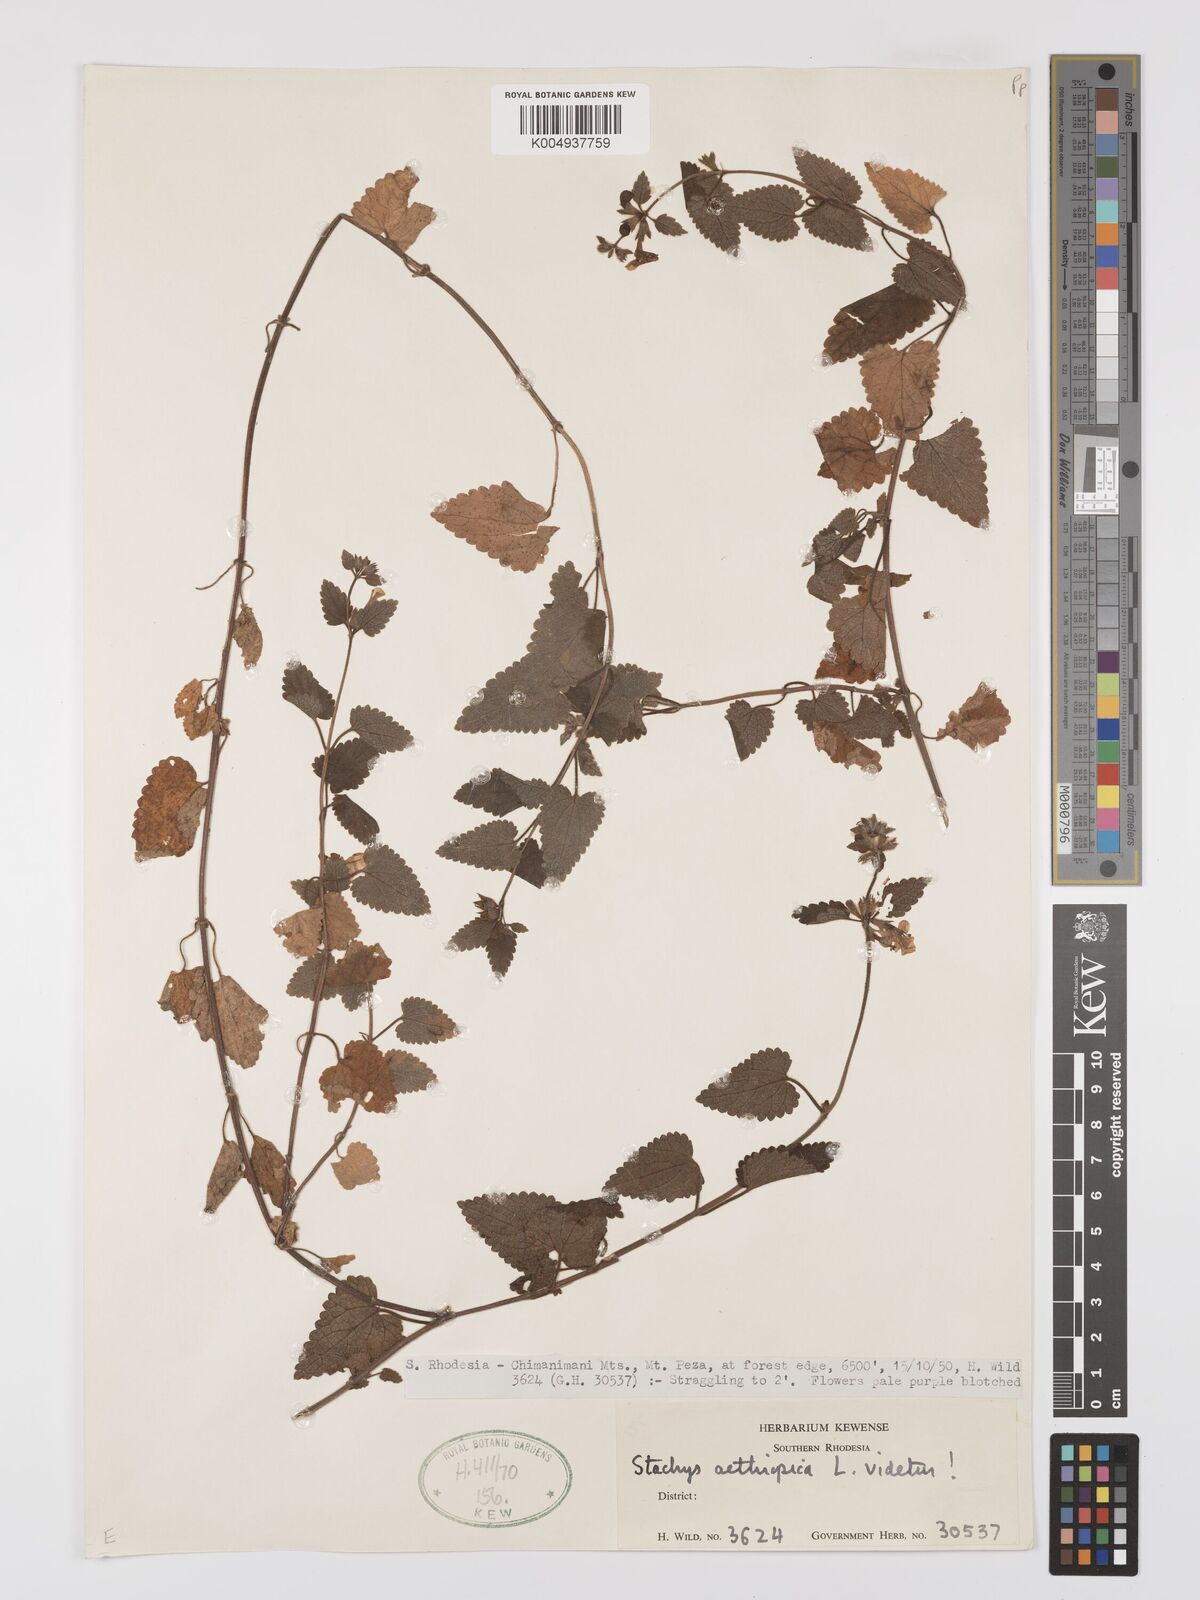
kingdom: Plantae
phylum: Tracheophyta
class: Magnoliopsida
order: Lamiales
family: Lamiaceae
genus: Stachys
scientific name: Stachys aethiopica
